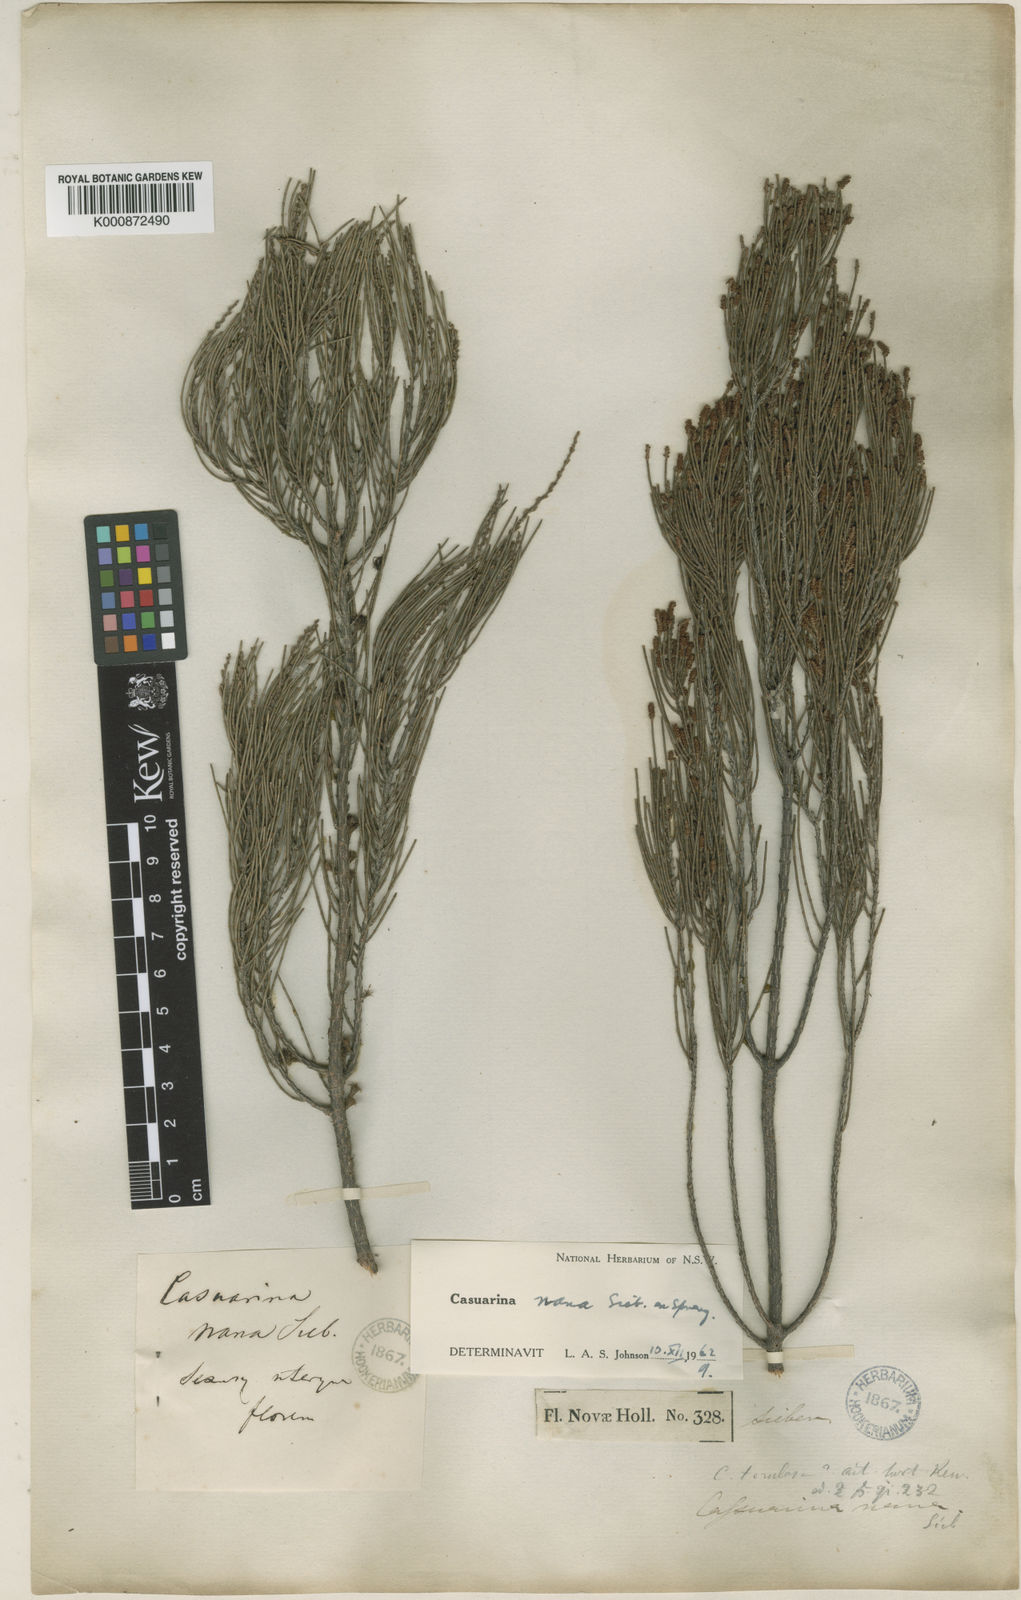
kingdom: Plantae
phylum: Tracheophyta
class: Magnoliopsida
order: Fagales
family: Casuarinaceae
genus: Allocasuarina
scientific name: Allocasuarina nana
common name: Stunted she-oak
